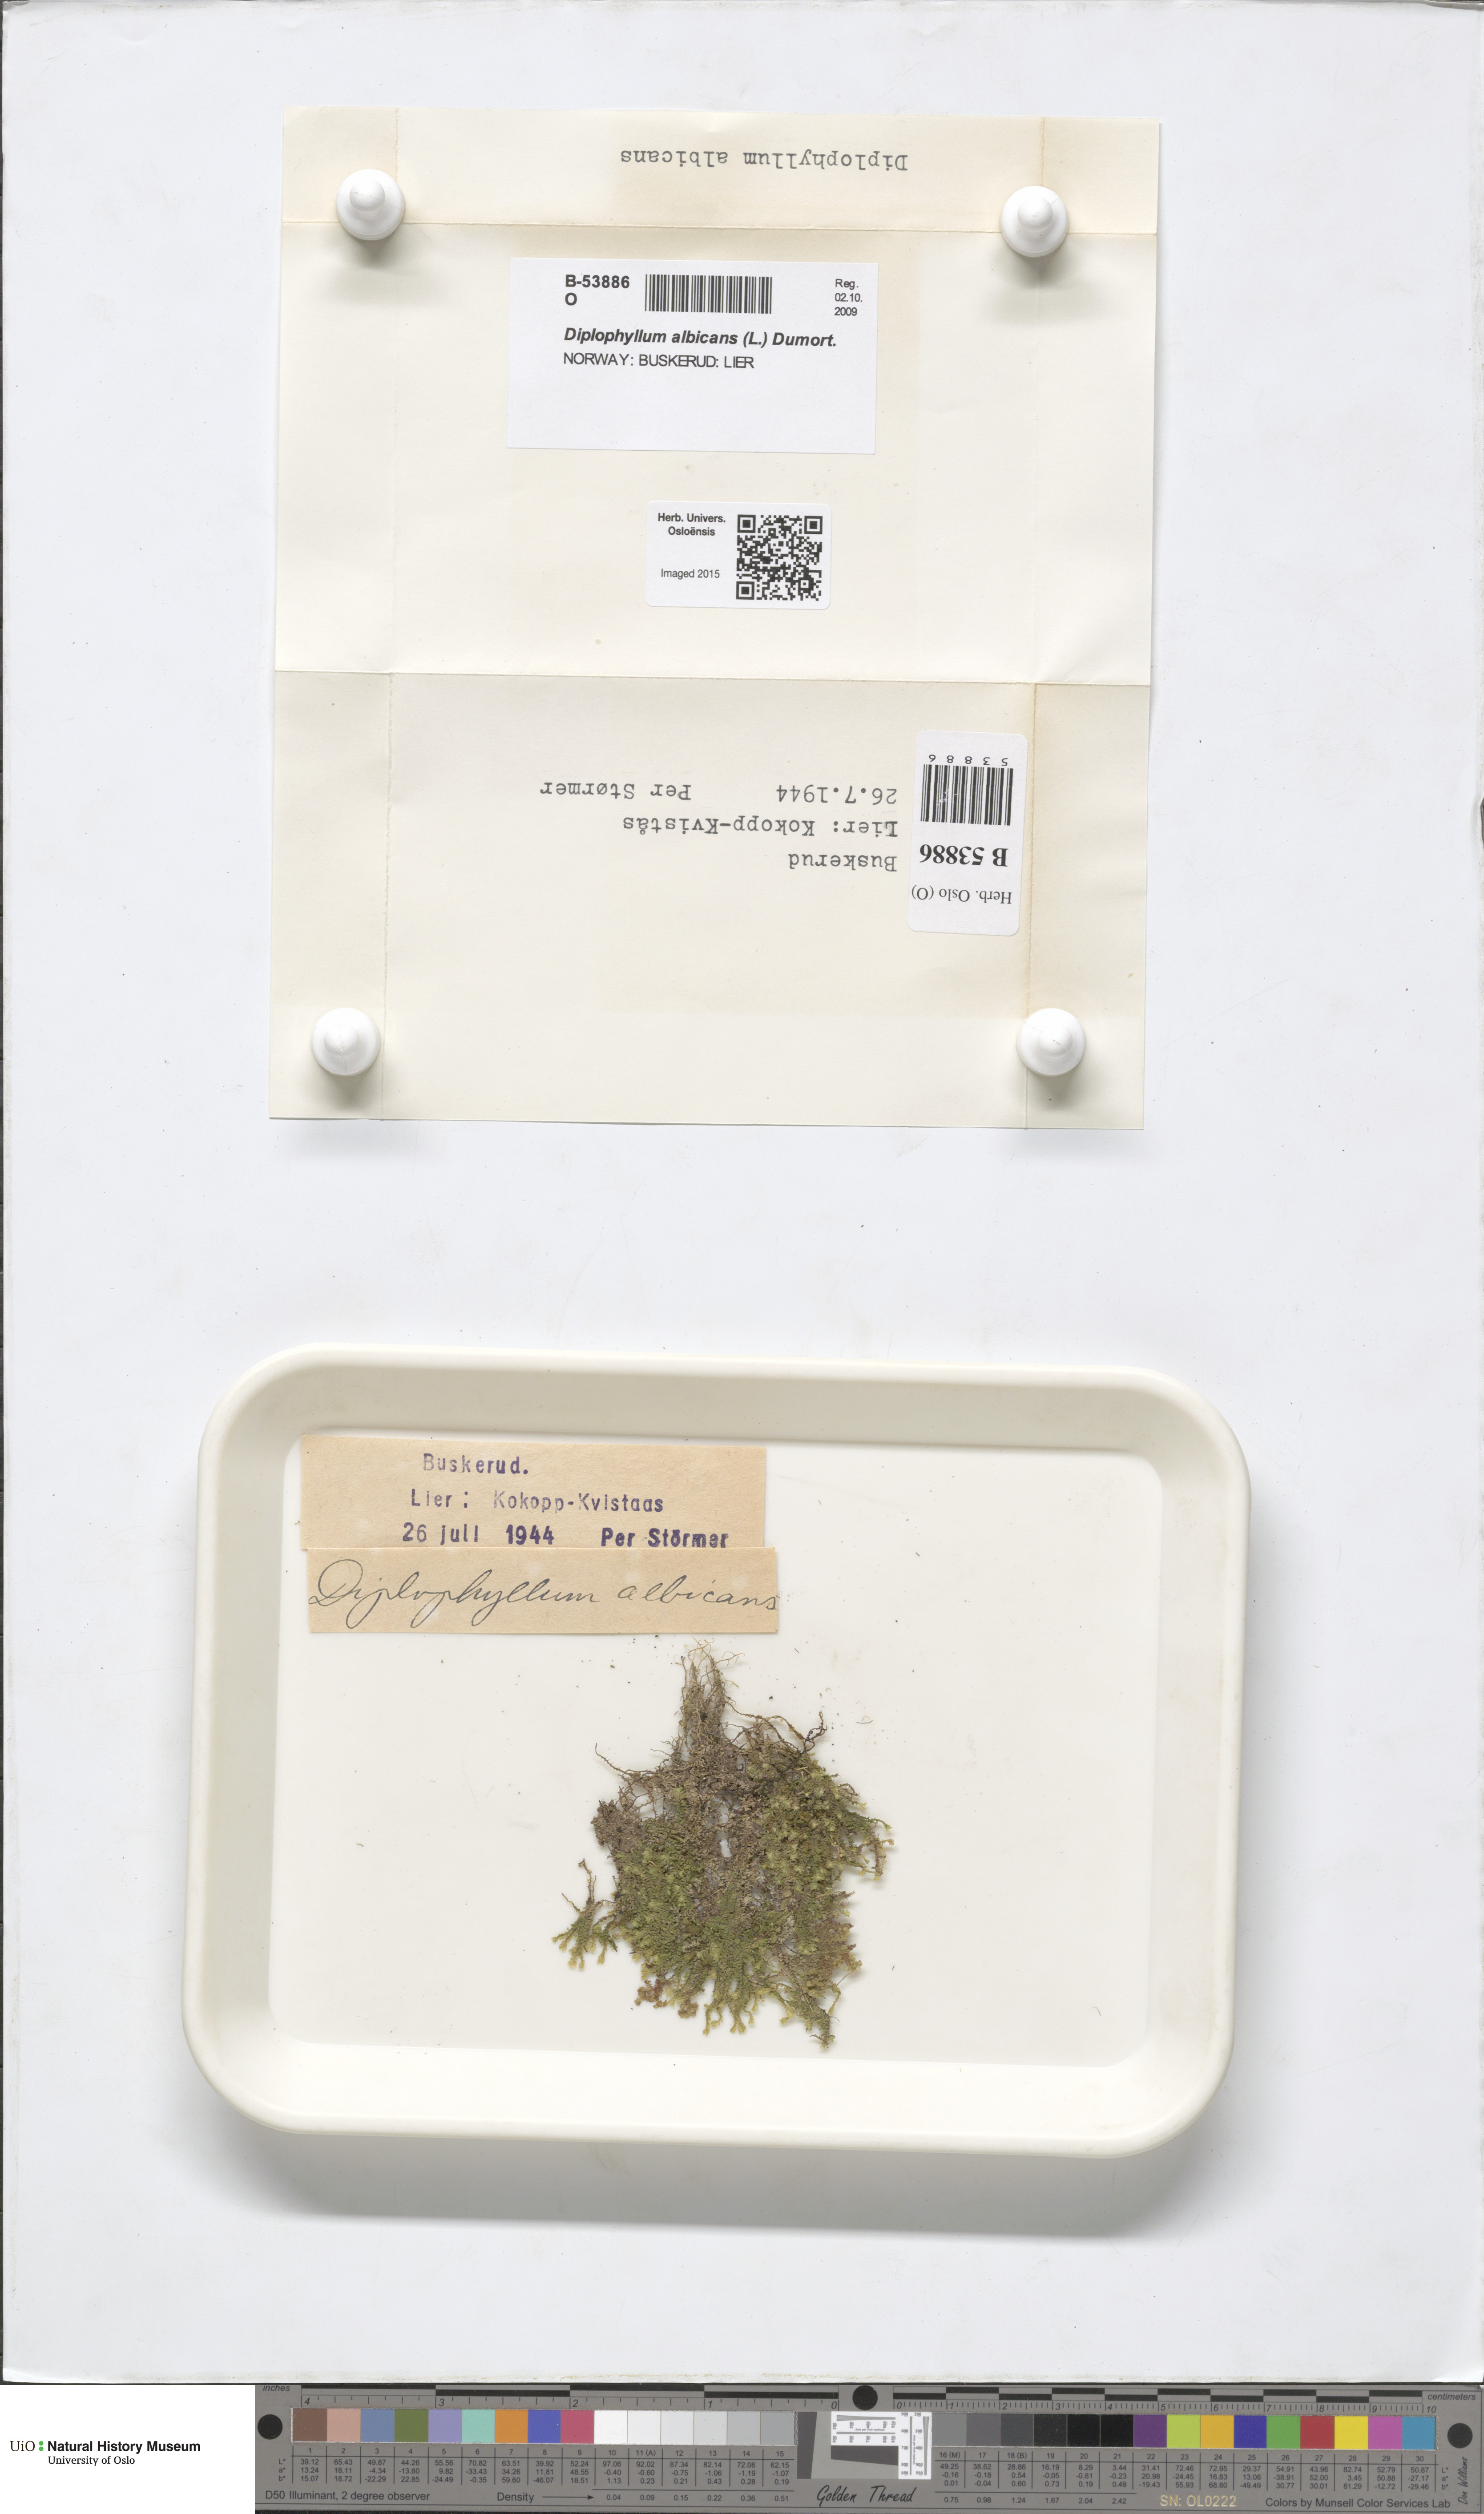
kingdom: Plantae
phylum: Marchantiophyta
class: Jungermanniopsida
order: Jungermanniales
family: Scapaniaceae
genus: Diplophyllum
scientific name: Diplophyllum albicans
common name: White earwort
